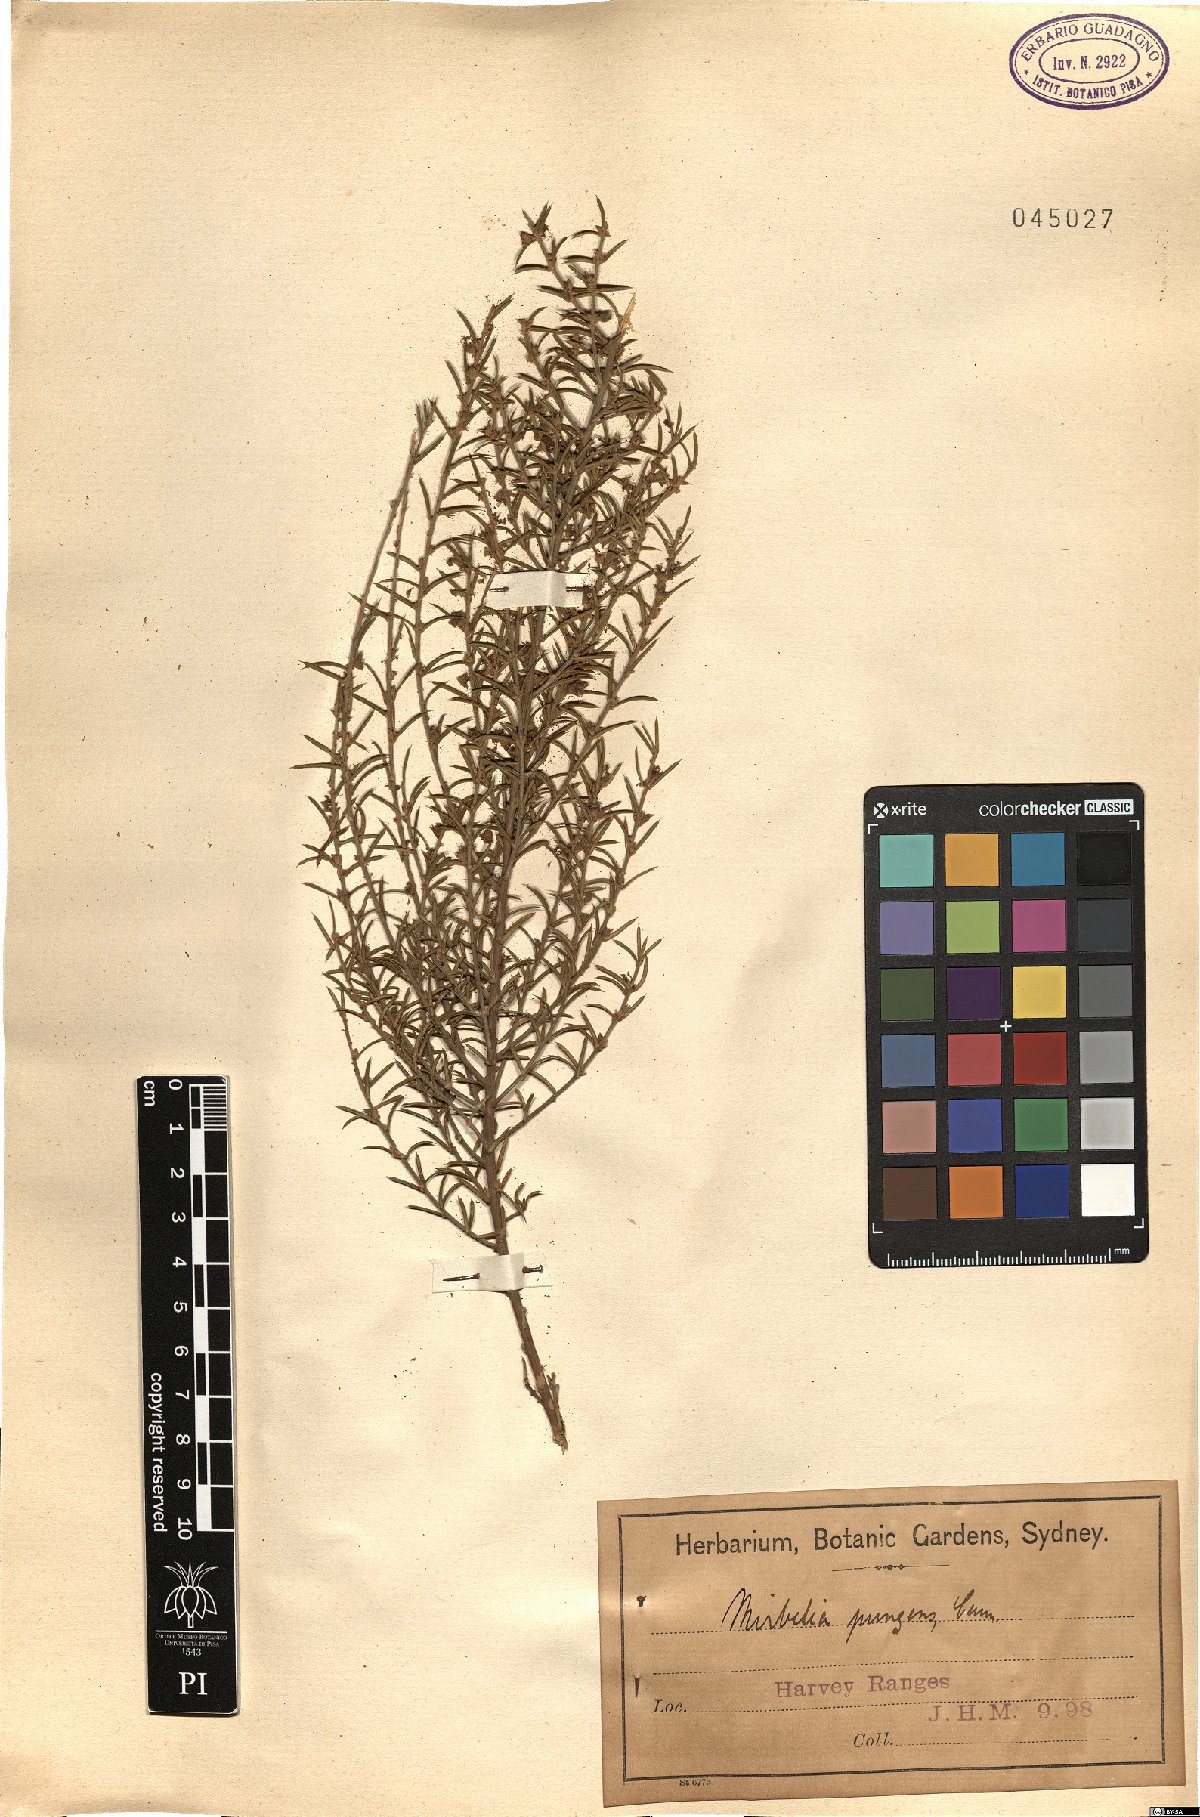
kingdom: Plantae
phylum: Tracheophyta
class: Magnoliopsida
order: Fabales
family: Fabaceae
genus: Mirbelia
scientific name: Mirbelia pungens
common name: Prickly mirbelia
